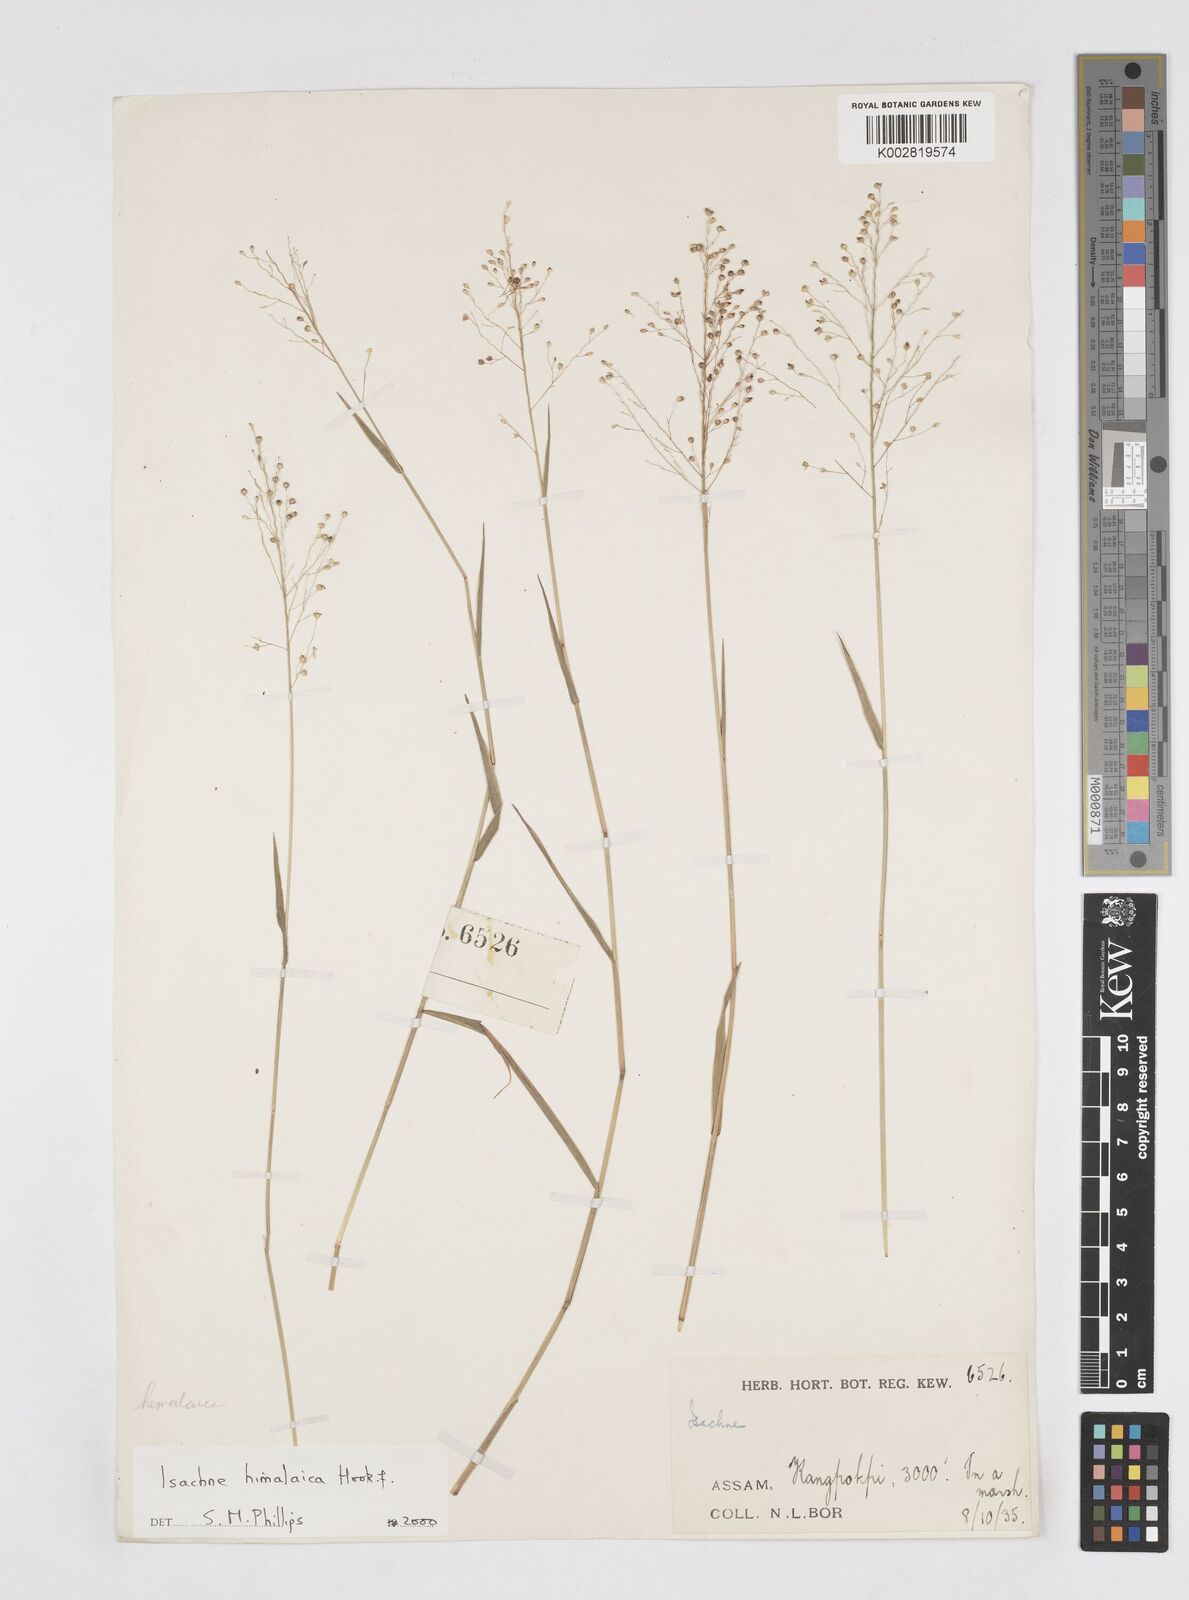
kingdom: Plantae
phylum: Tracheophyta
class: Liliopsida
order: Poales
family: Poaceae
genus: Isachne
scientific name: Isachne himalaica
